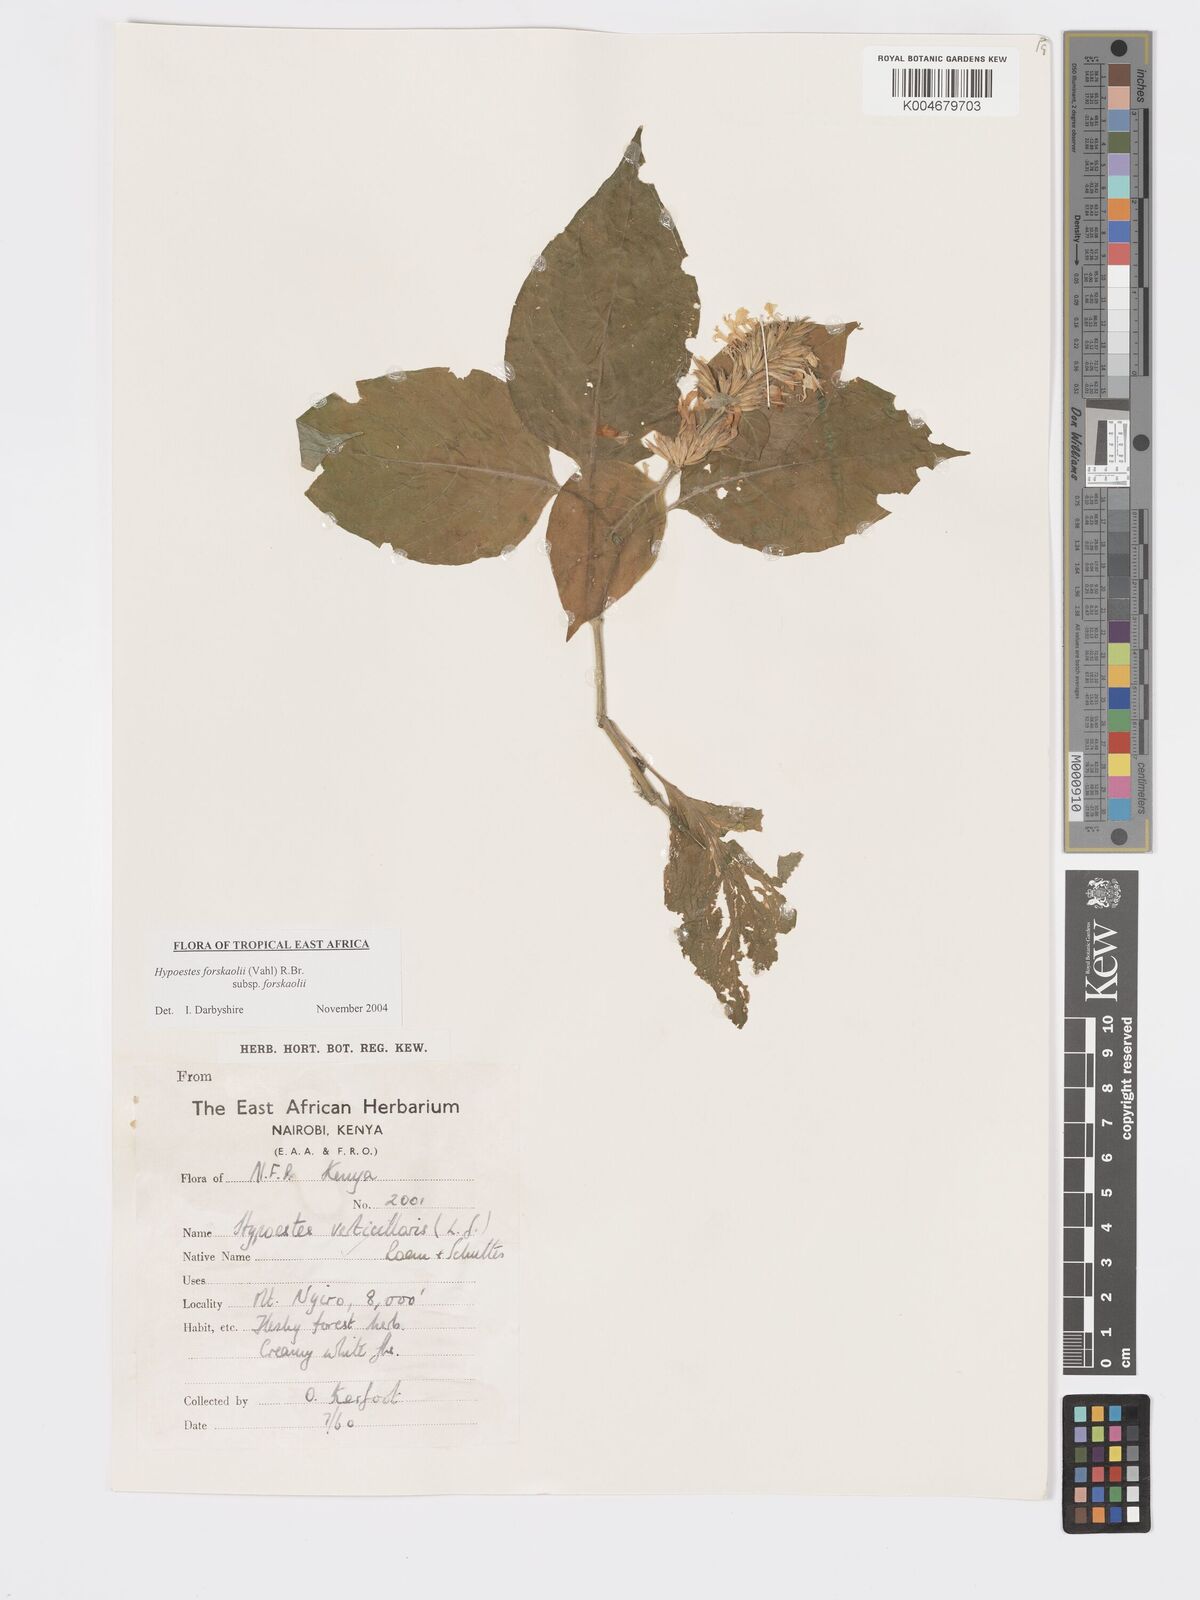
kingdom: Plantae
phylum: Tracheophyta
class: Magnoliopsida
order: Lamiales
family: Acanthaceae
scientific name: Acanthaceae
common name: Acanthaceae
